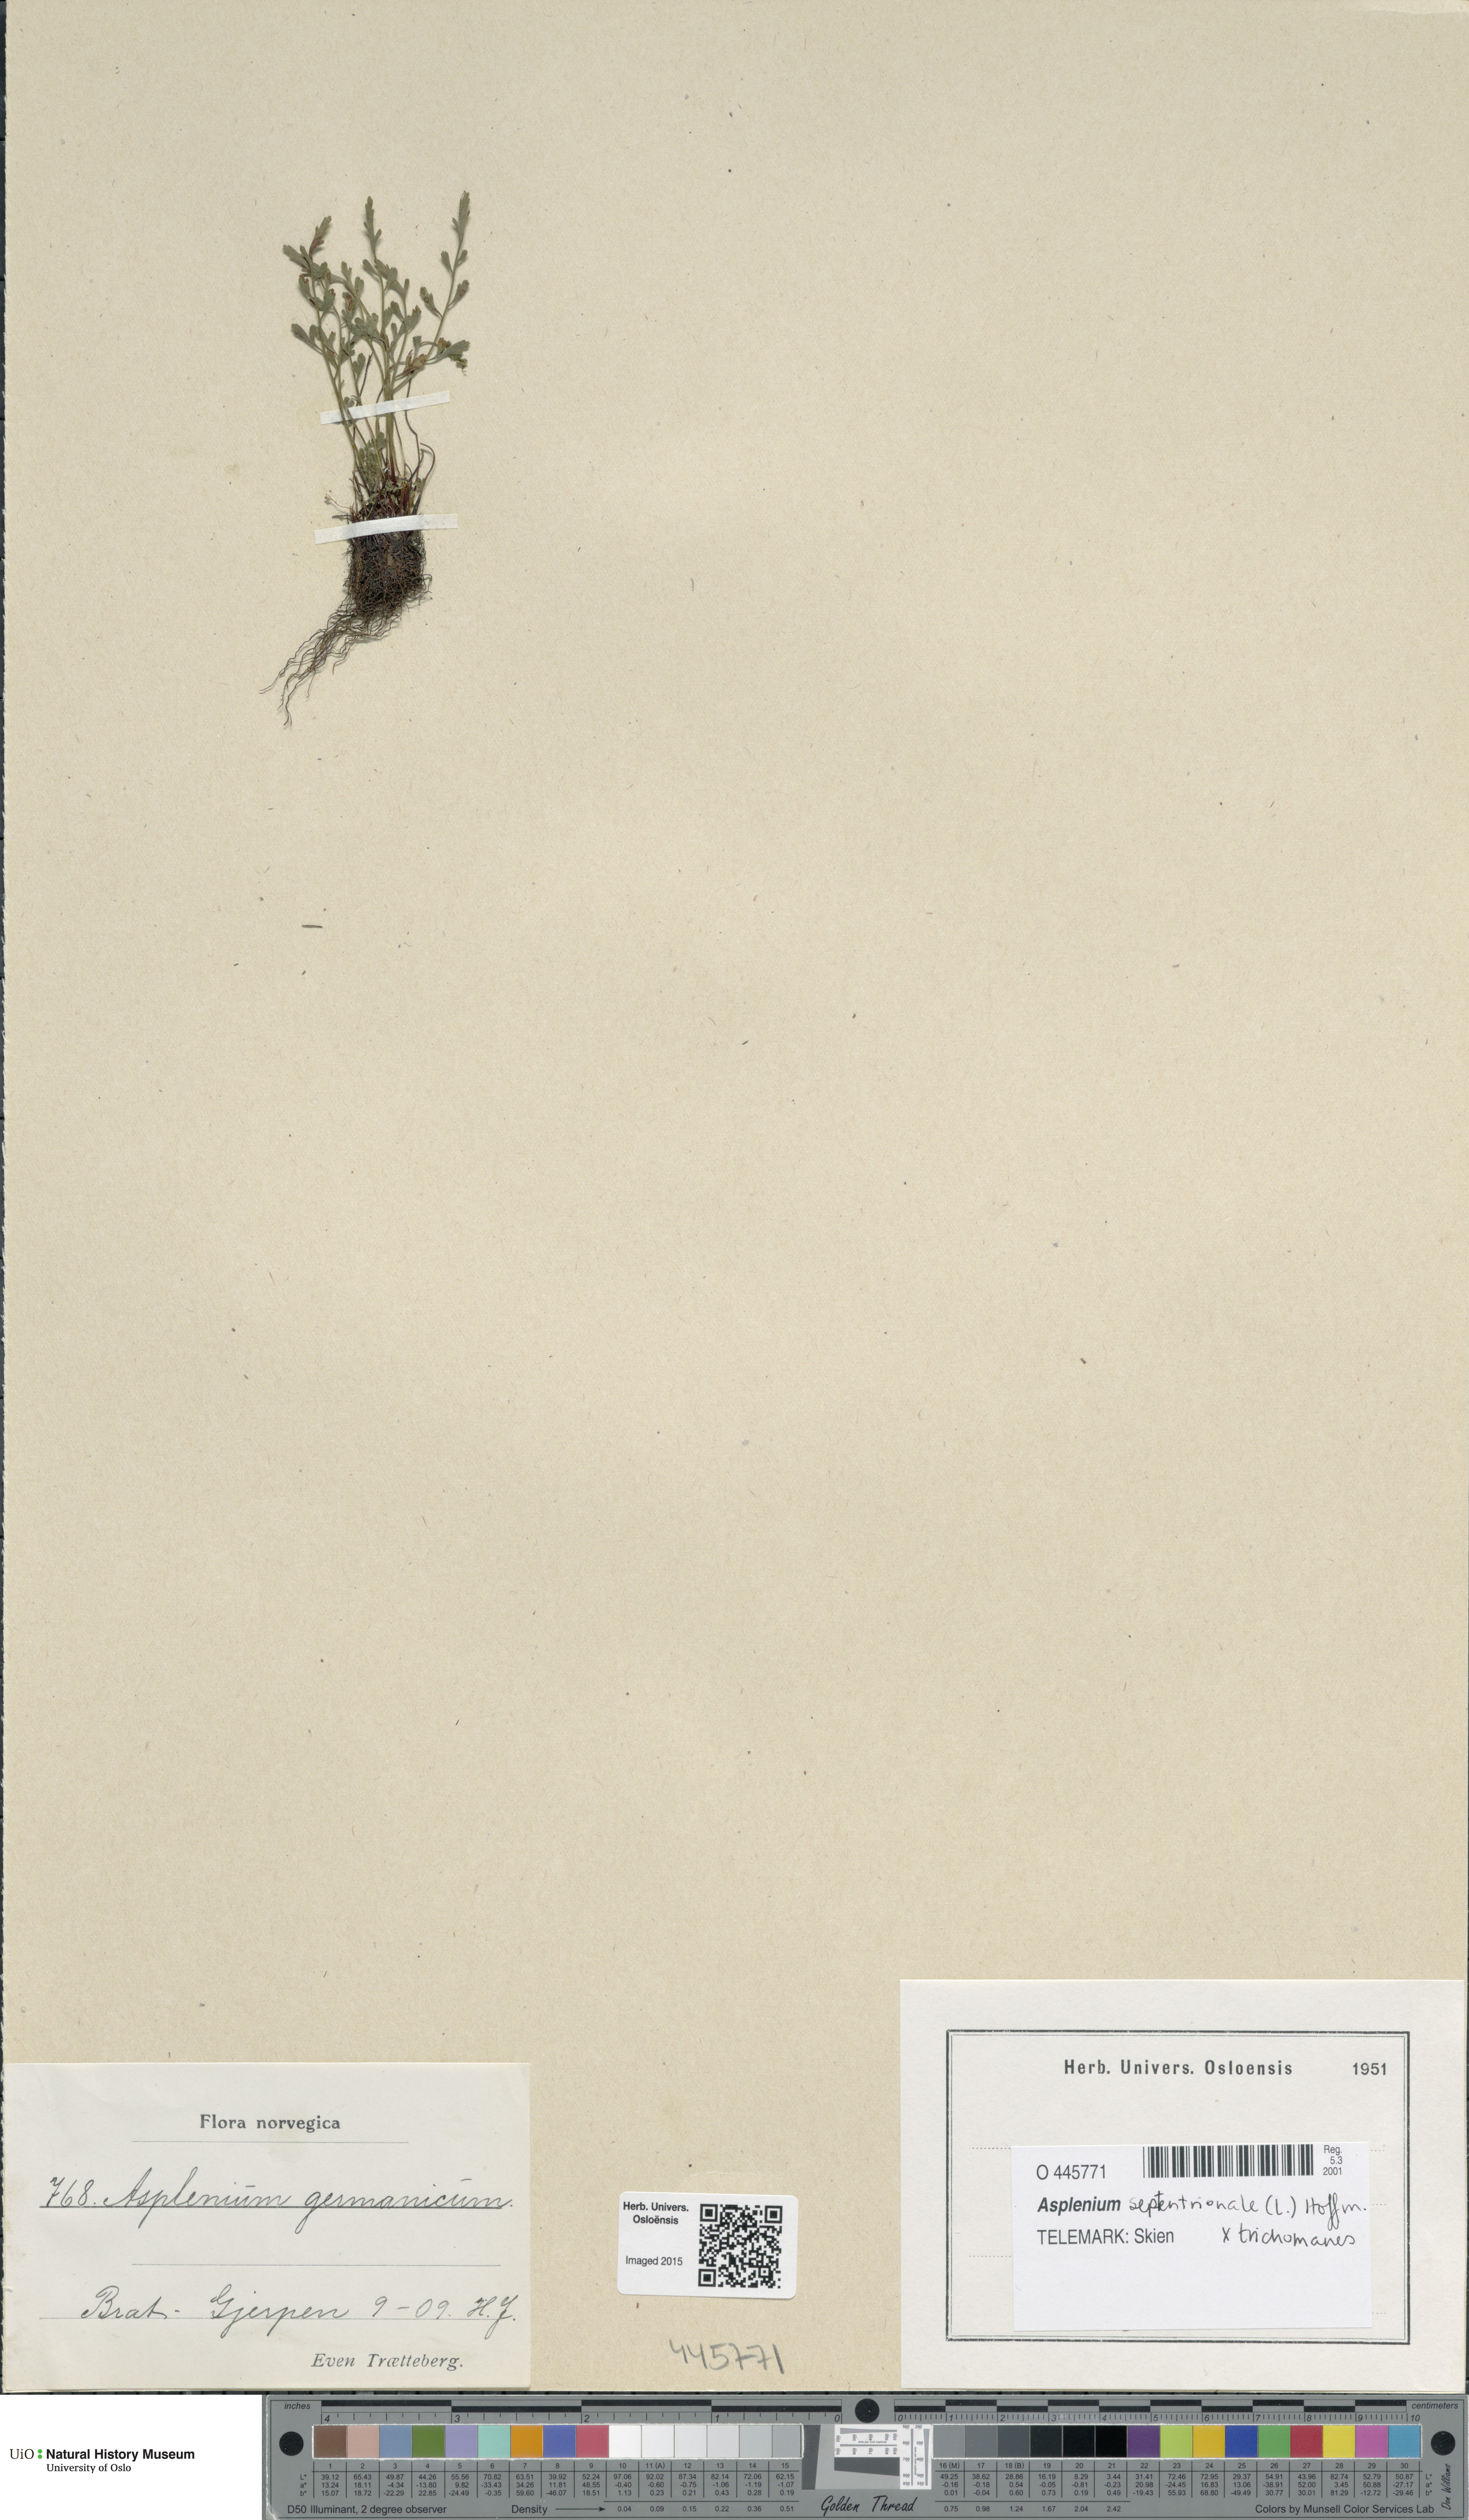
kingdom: Plantae
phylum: Tracheophyta
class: Polypodiopsida
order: Polypodiales
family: Aspleniaceae
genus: Asplenium
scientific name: Asplenium
